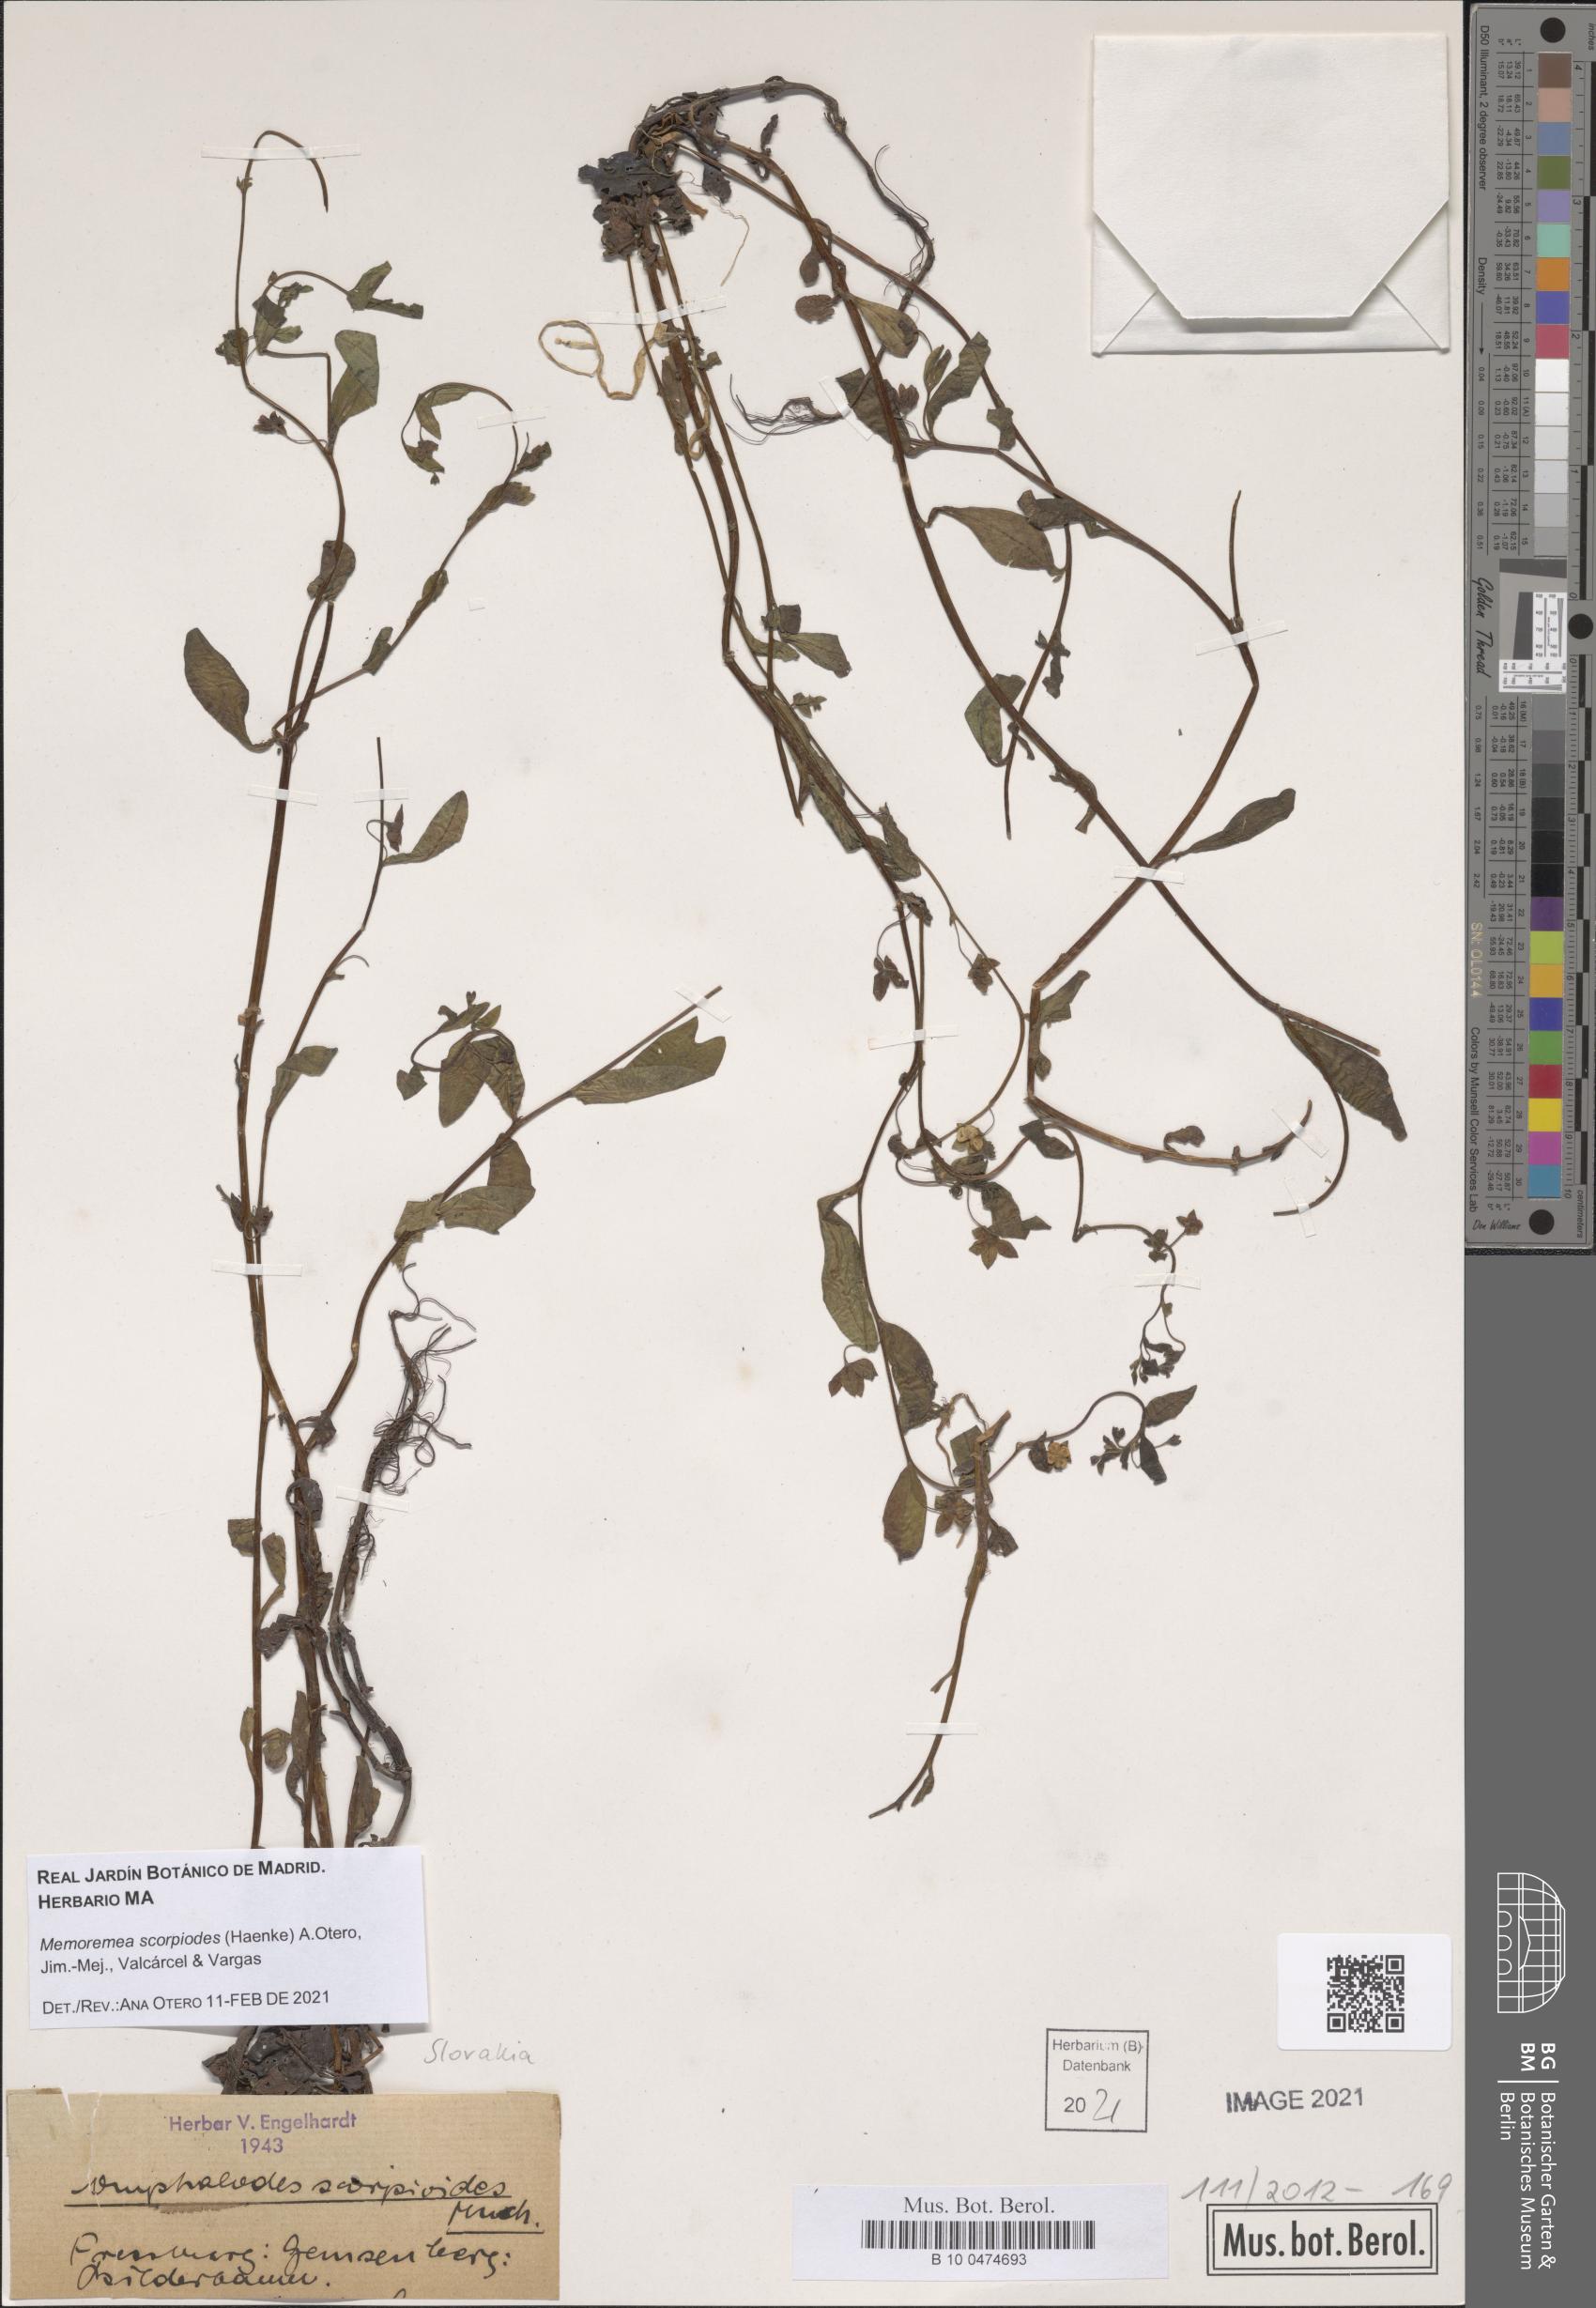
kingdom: Plantae
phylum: Tracheophyta
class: Magnoliopsida
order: Boraginales
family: Boraginaceae
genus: Memoremea
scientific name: Memoremea scorpioides
